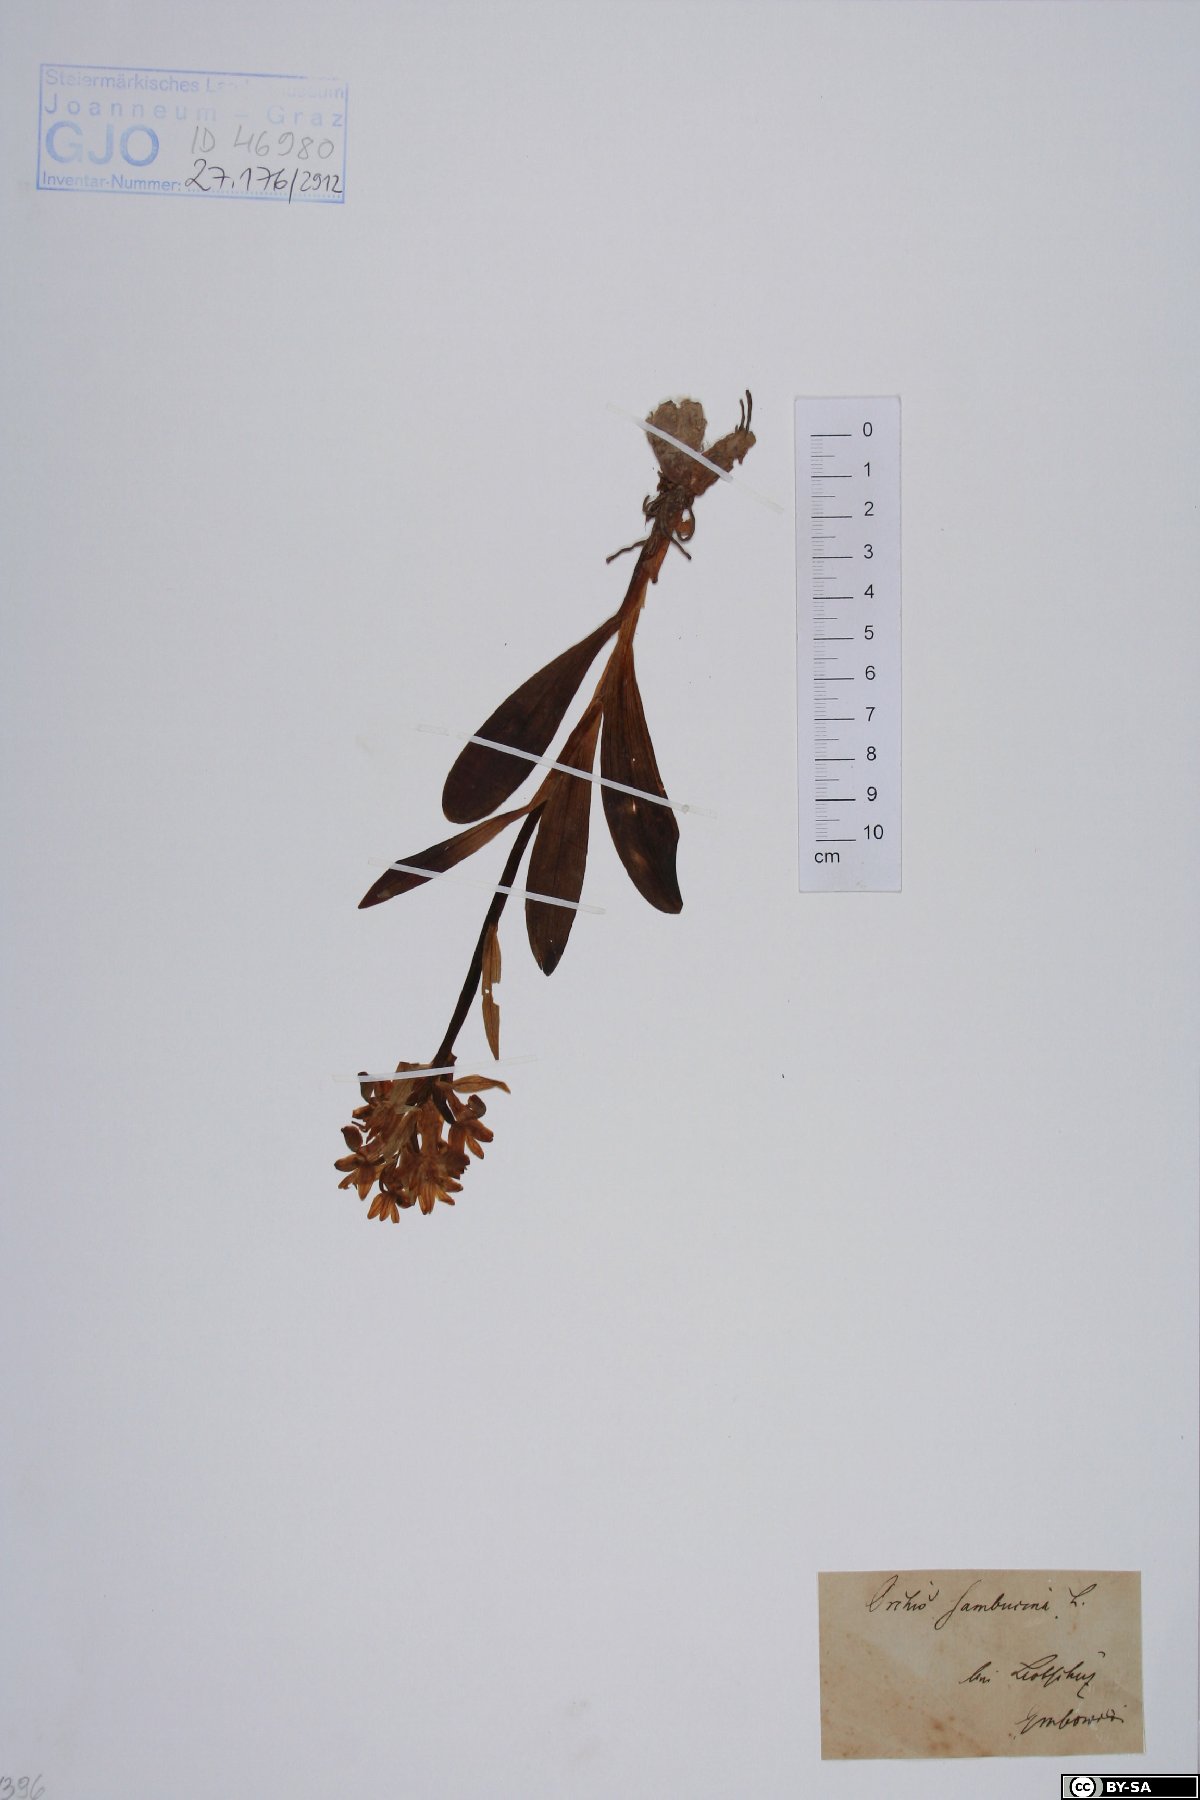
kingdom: Plantae
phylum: Tracheophyta
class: Liliopsida
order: Asparagales
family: Orchidaceae
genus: Dactylorhiza
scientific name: Dactylorhiza sambucina
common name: Elder-flowered orchid
